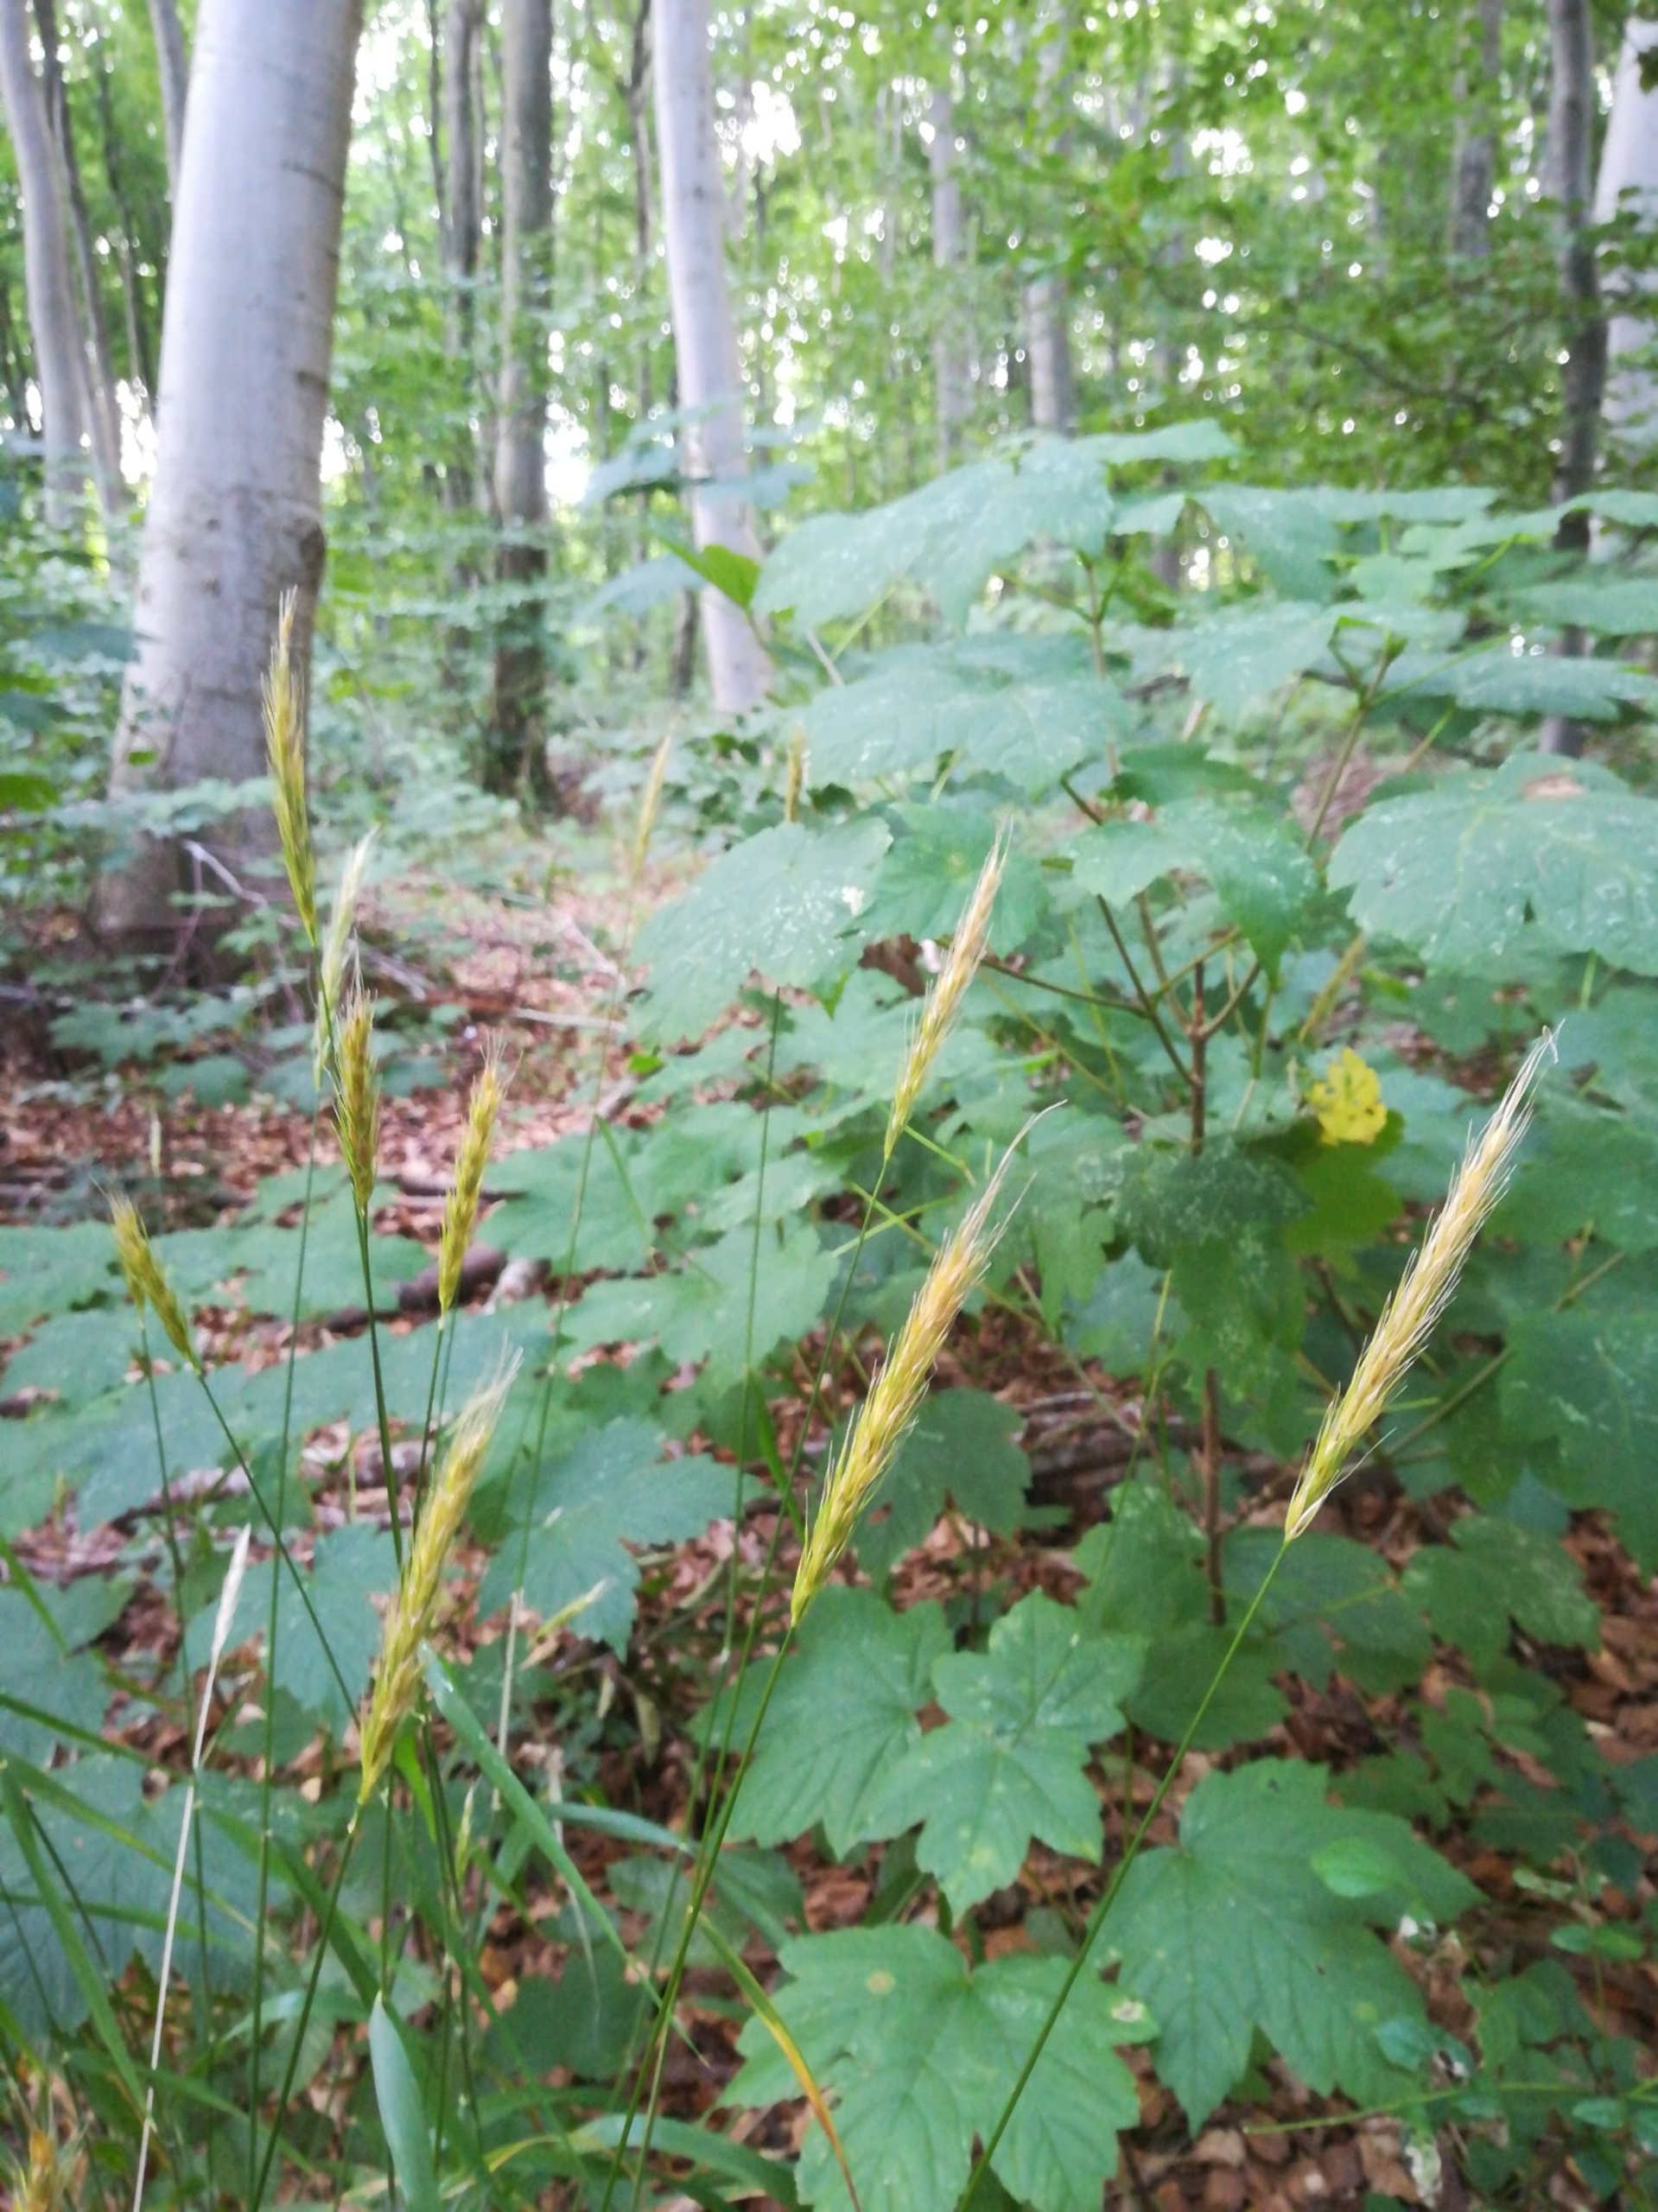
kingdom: Plantae
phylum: Tracheophyta
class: Liliopsida
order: Poales
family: Poaceae
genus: Hordelymus
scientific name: Hordelymus europaeus
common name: Skovbyg
